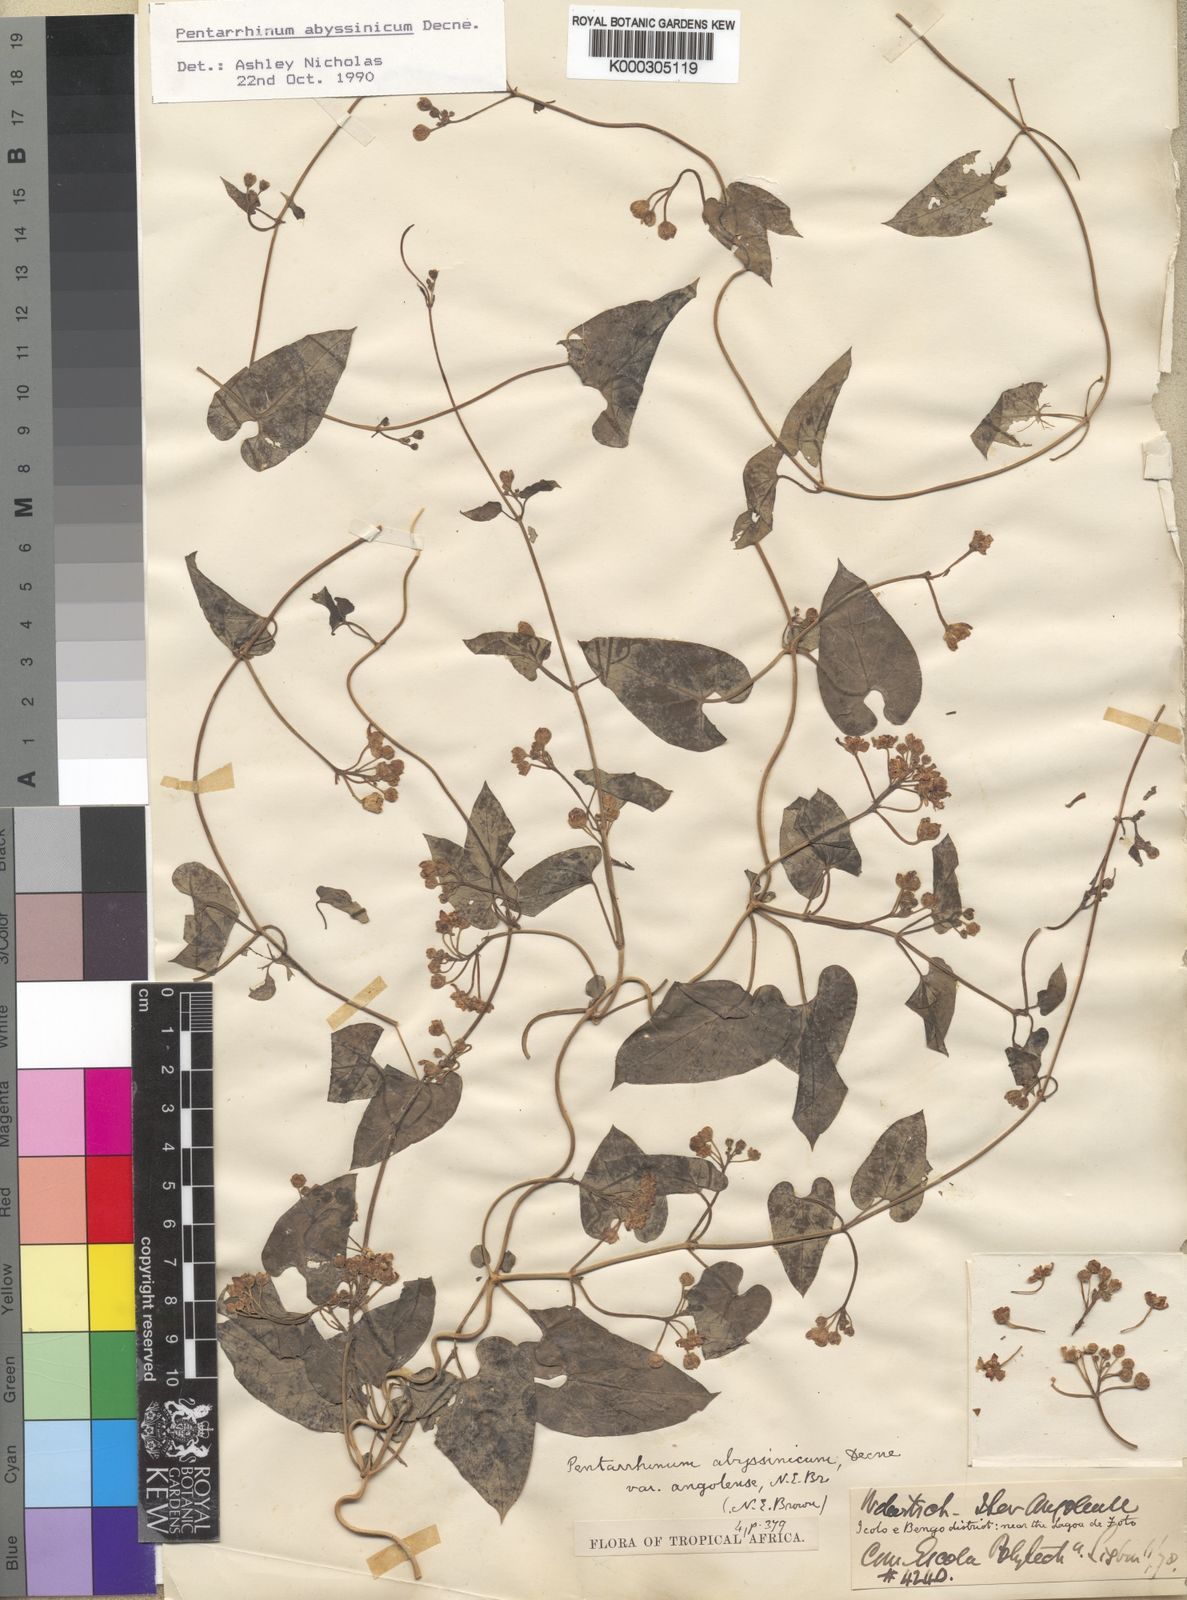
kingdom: Plantae
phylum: Tracheophyta
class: Magnoliopsida
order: Gentianales
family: Apocynaceae
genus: Cynanchum
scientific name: Cynanchum ethiopicum
